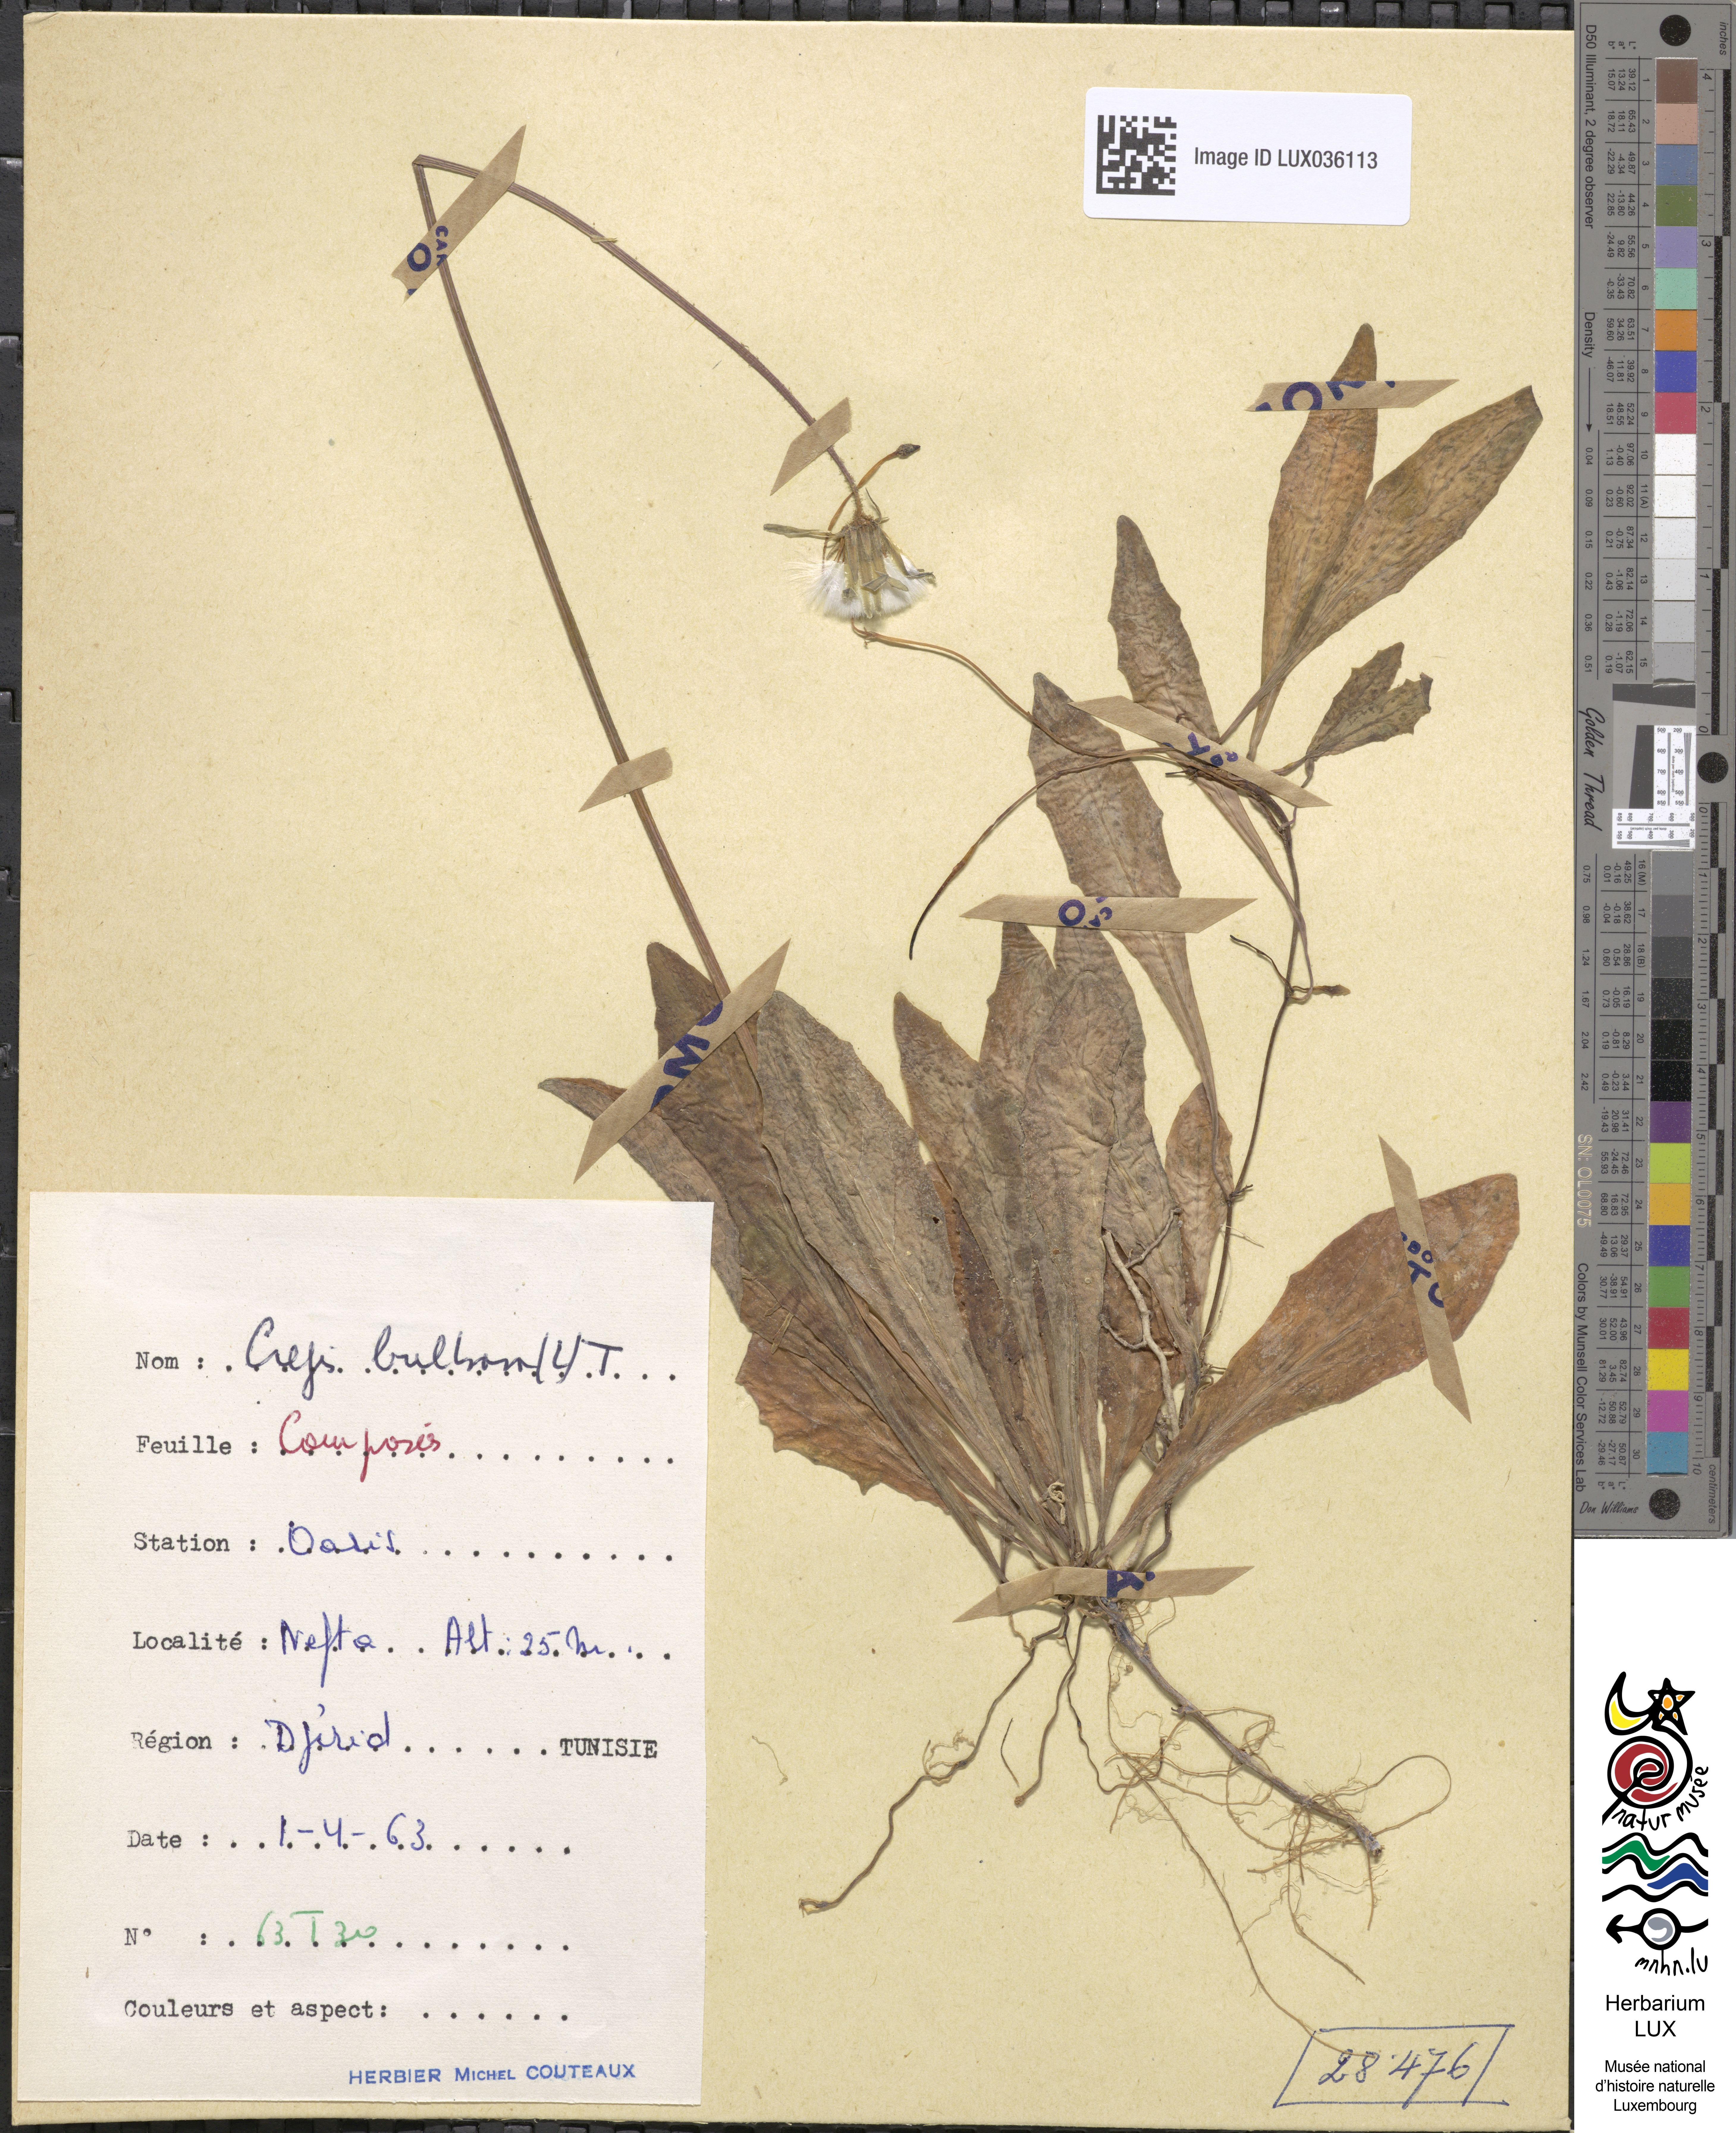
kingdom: Plantae
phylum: Tracheophyta
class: Magnoliopsida
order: Asterales
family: Asteraceae
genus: Aetheorhiza
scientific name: Aetheorhiza bulbosa
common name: Tuberous hawk's-beard
